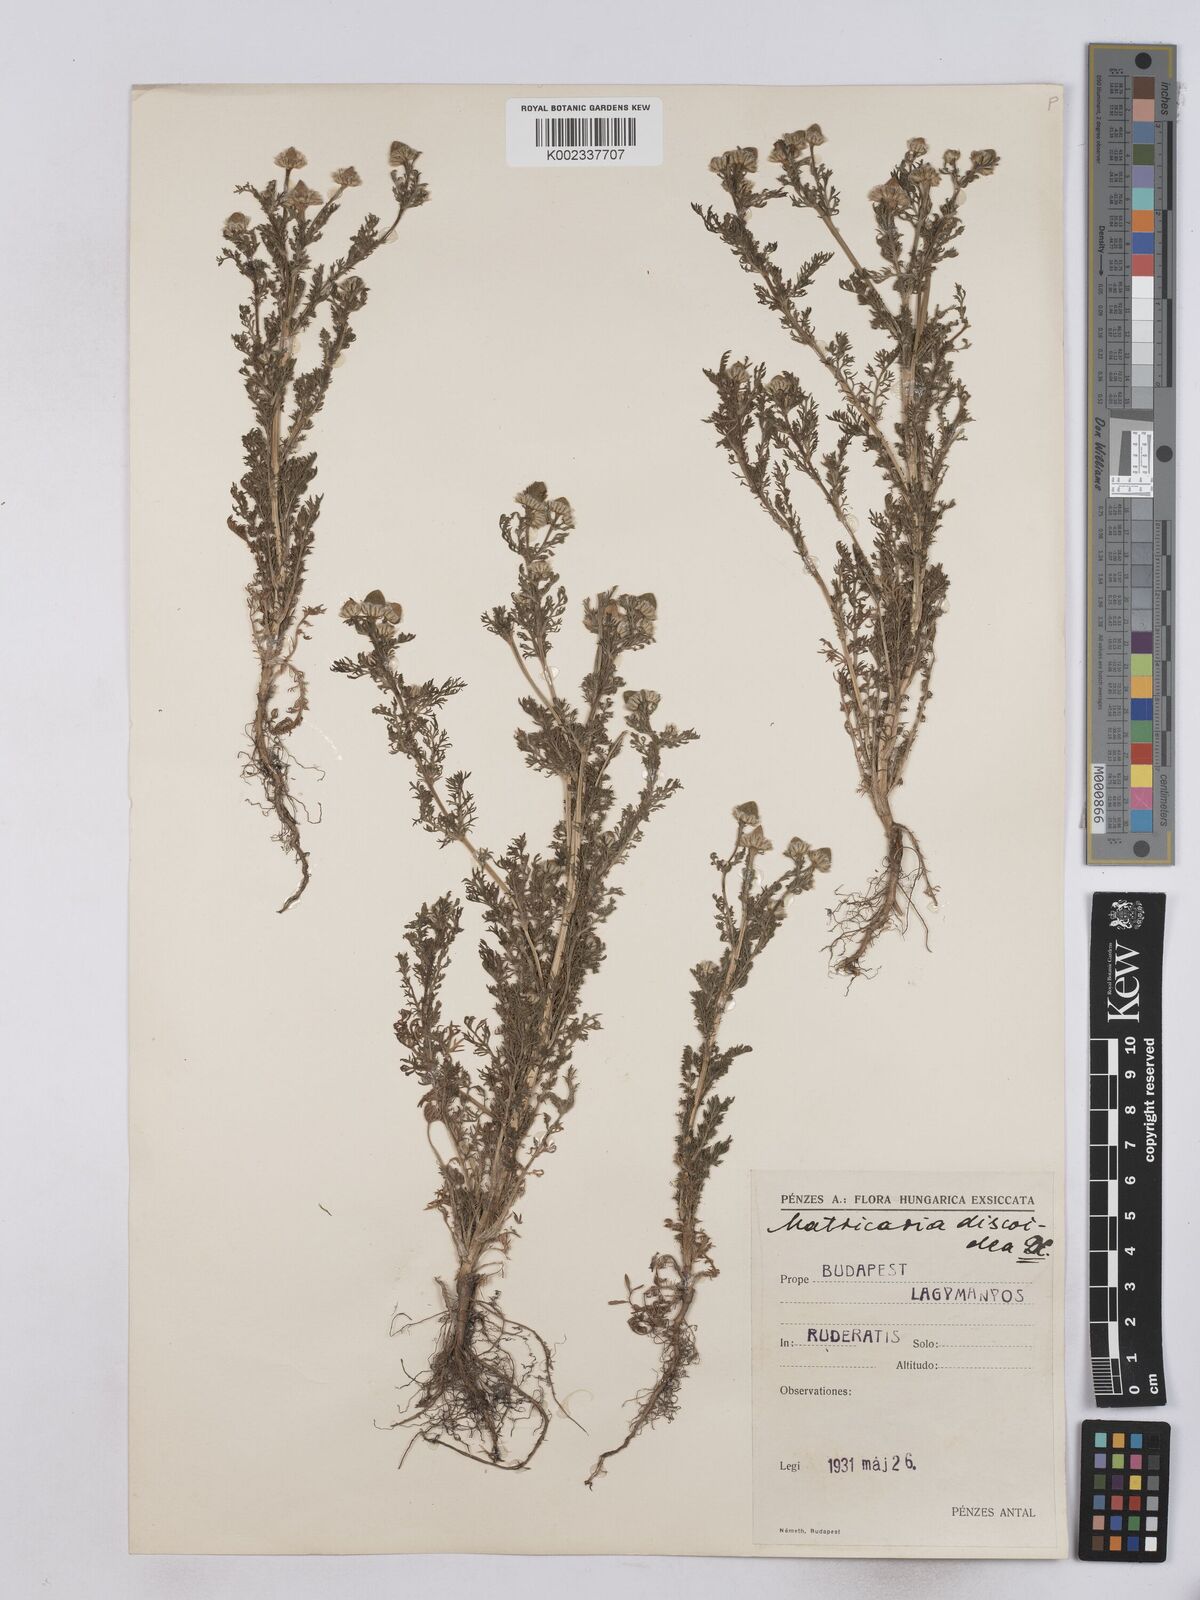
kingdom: Plantae
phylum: Tracheophyta
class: Magnoliopsida
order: Asterales
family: Asteraceae
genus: Matricaria
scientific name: Matricaria discoidea
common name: Disc mayweed
